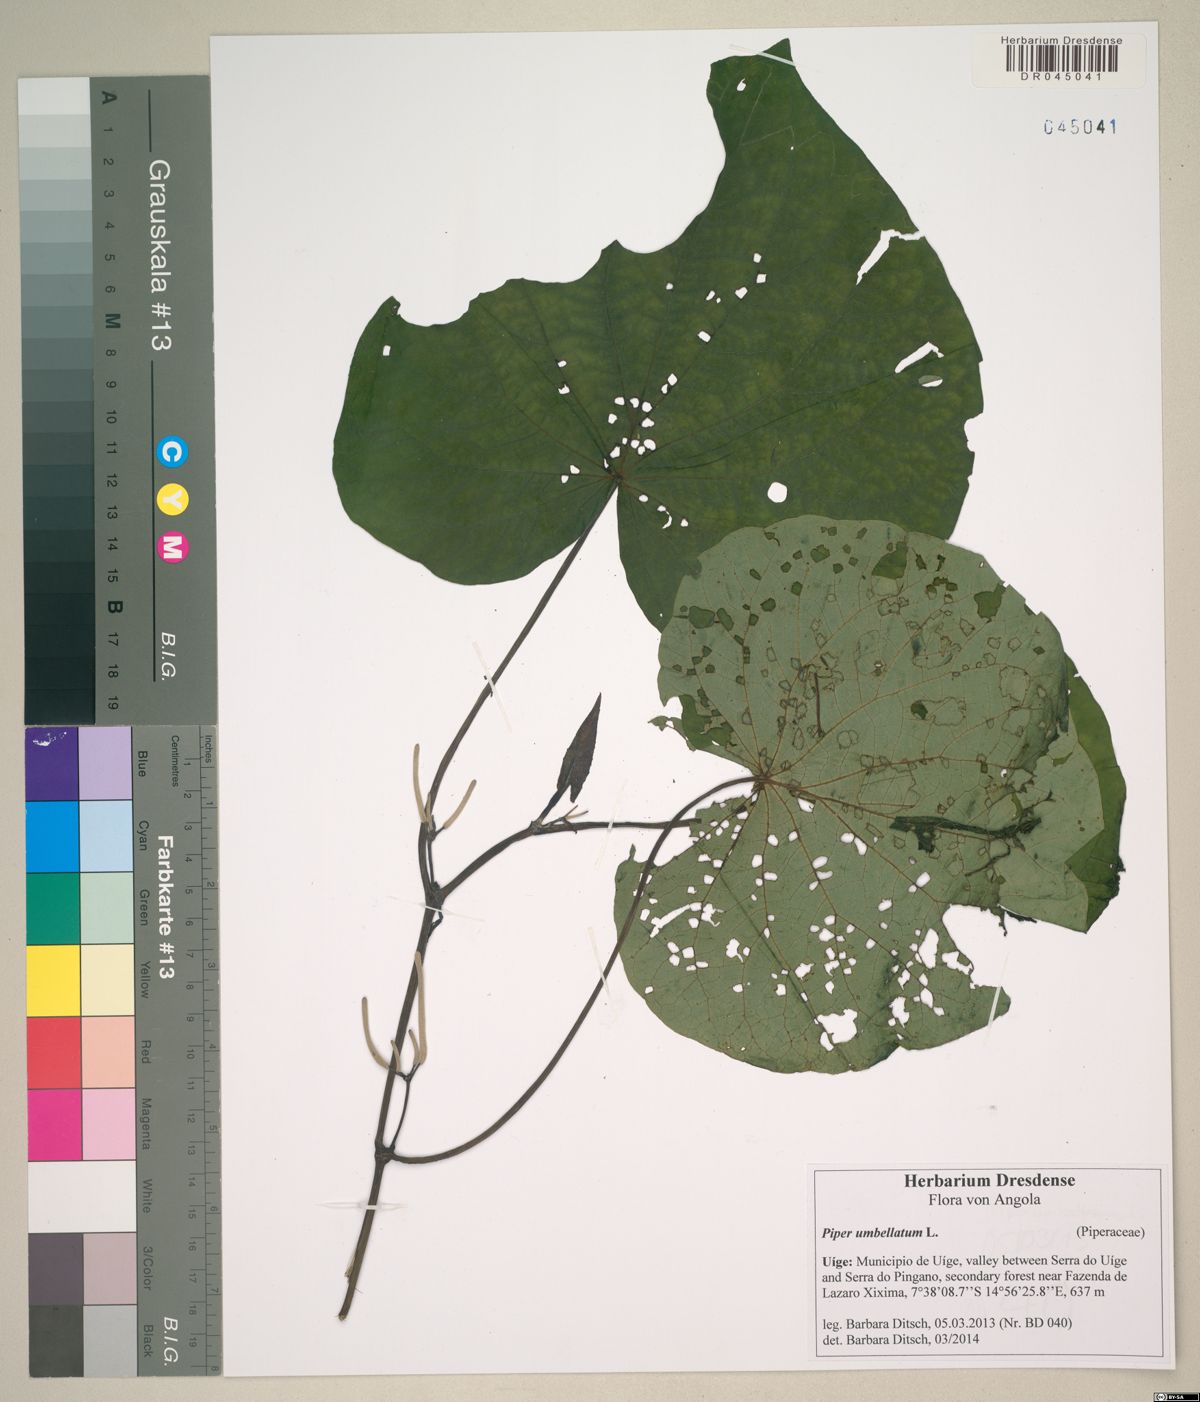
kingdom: Plantae
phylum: Tracheophyta
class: Magnoliopsida
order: Piperales
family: Piperaceae
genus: Piper
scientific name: Piper umbellatum
